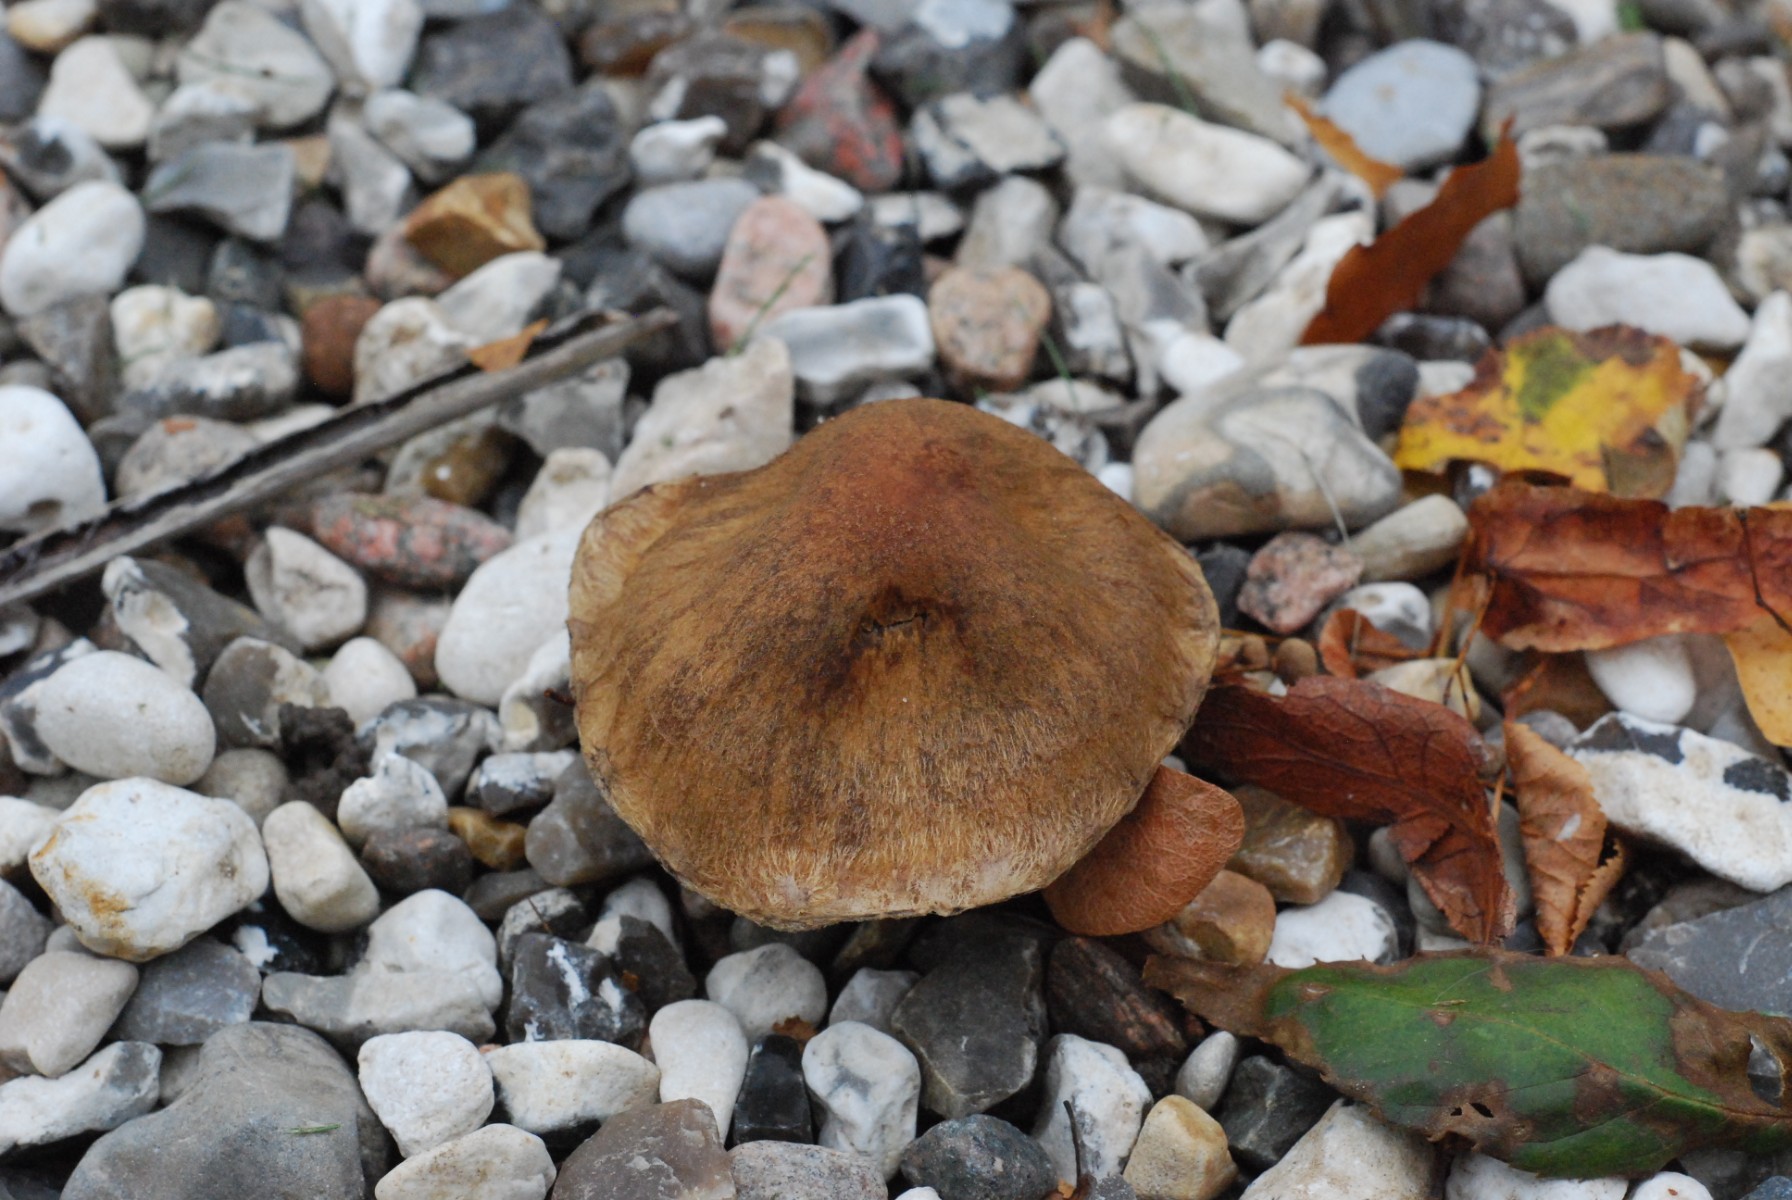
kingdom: Fungi
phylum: Basidiomycota
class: Agaricomycetes
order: Agaricales
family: Psathyrellaceae
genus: Lacrymaria
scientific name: Lacrymaria lacrymabunda
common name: grædende mørkhat
